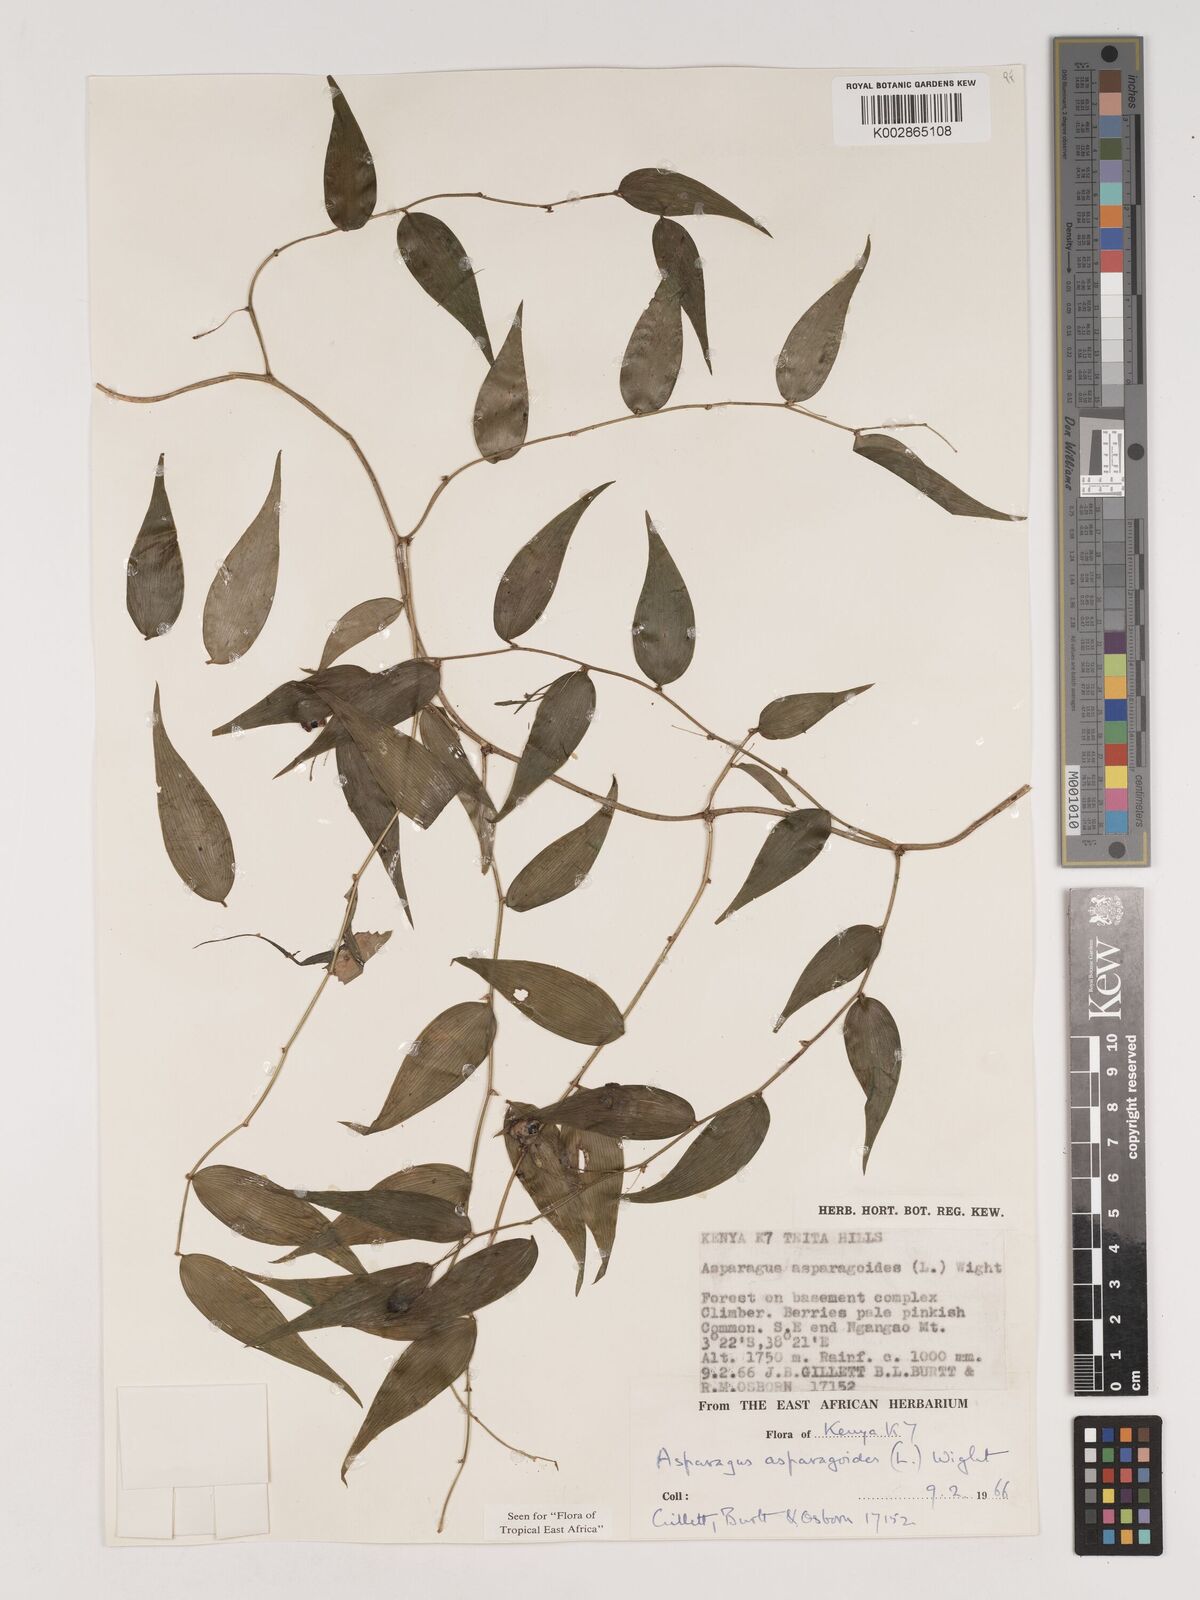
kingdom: Plantae
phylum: Tracheophyta
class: Liliopsida
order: Asparagales
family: Asparagaceae
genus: Asparagus
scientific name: Asparagus asparagoides
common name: African asparagus fern
